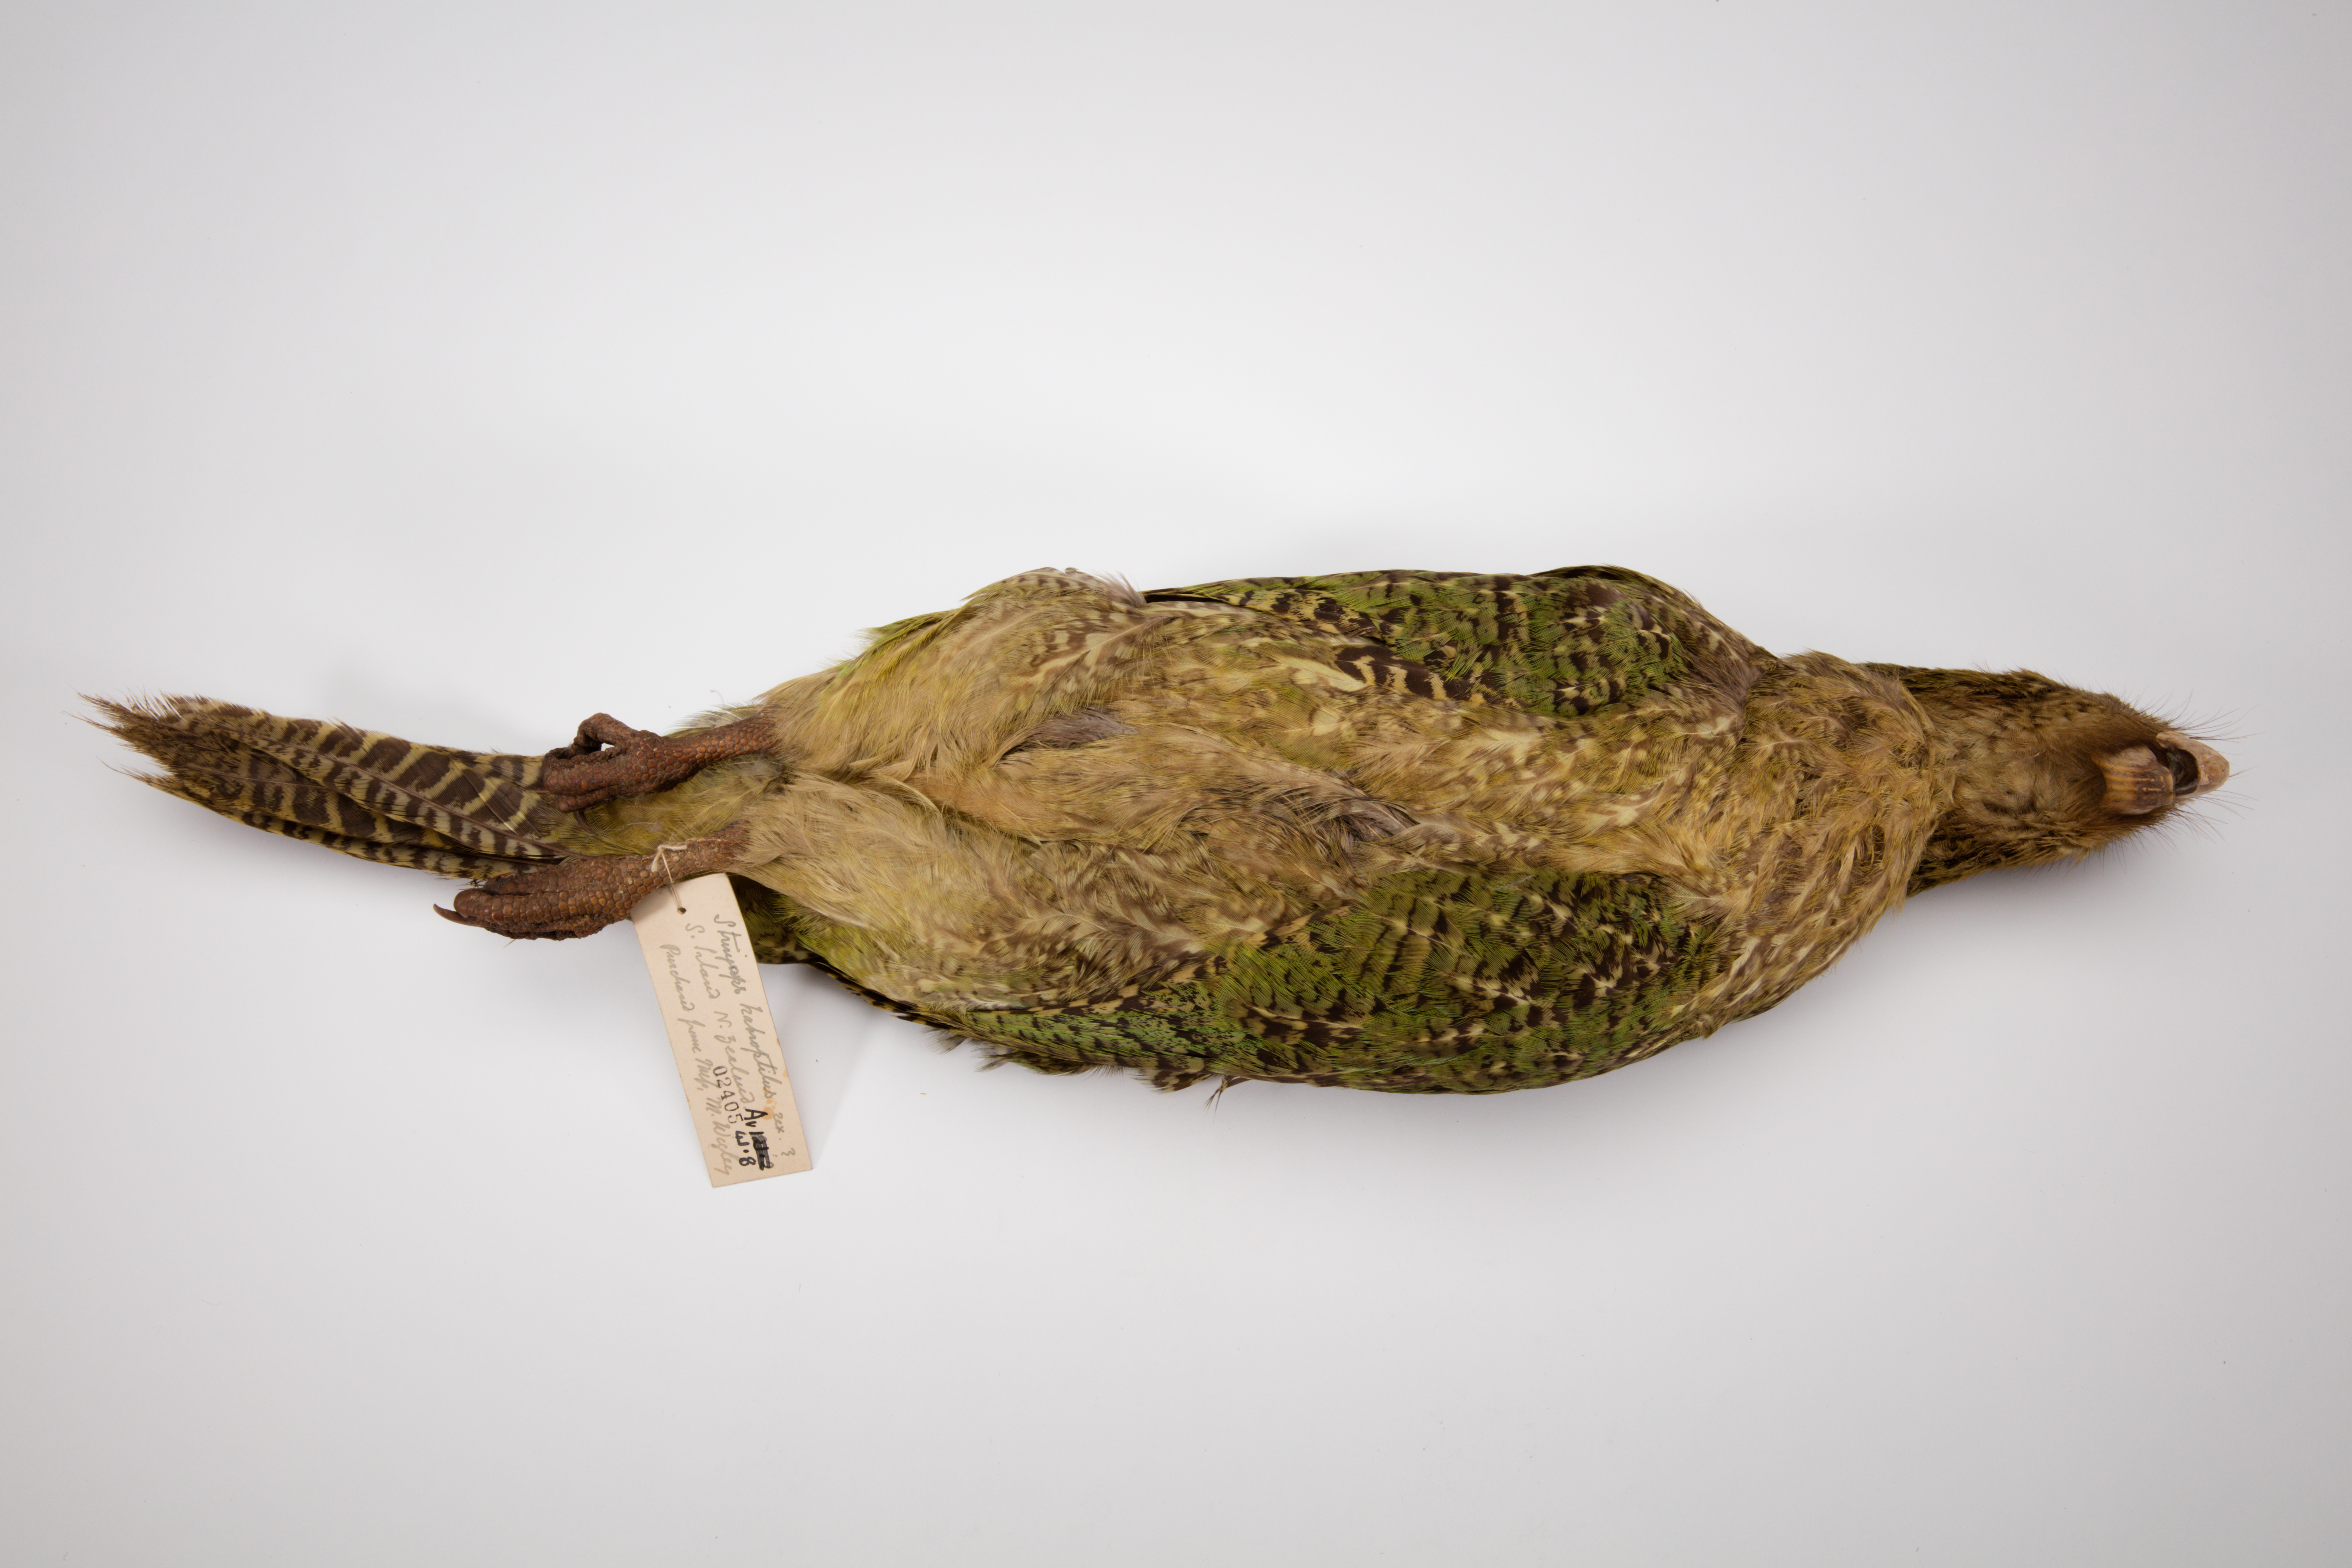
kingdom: Animalia
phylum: Chordata
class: Aves
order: Psittaciformes
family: Psittacidae
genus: Strigops
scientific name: Strigops habroptila
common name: Kakapo
